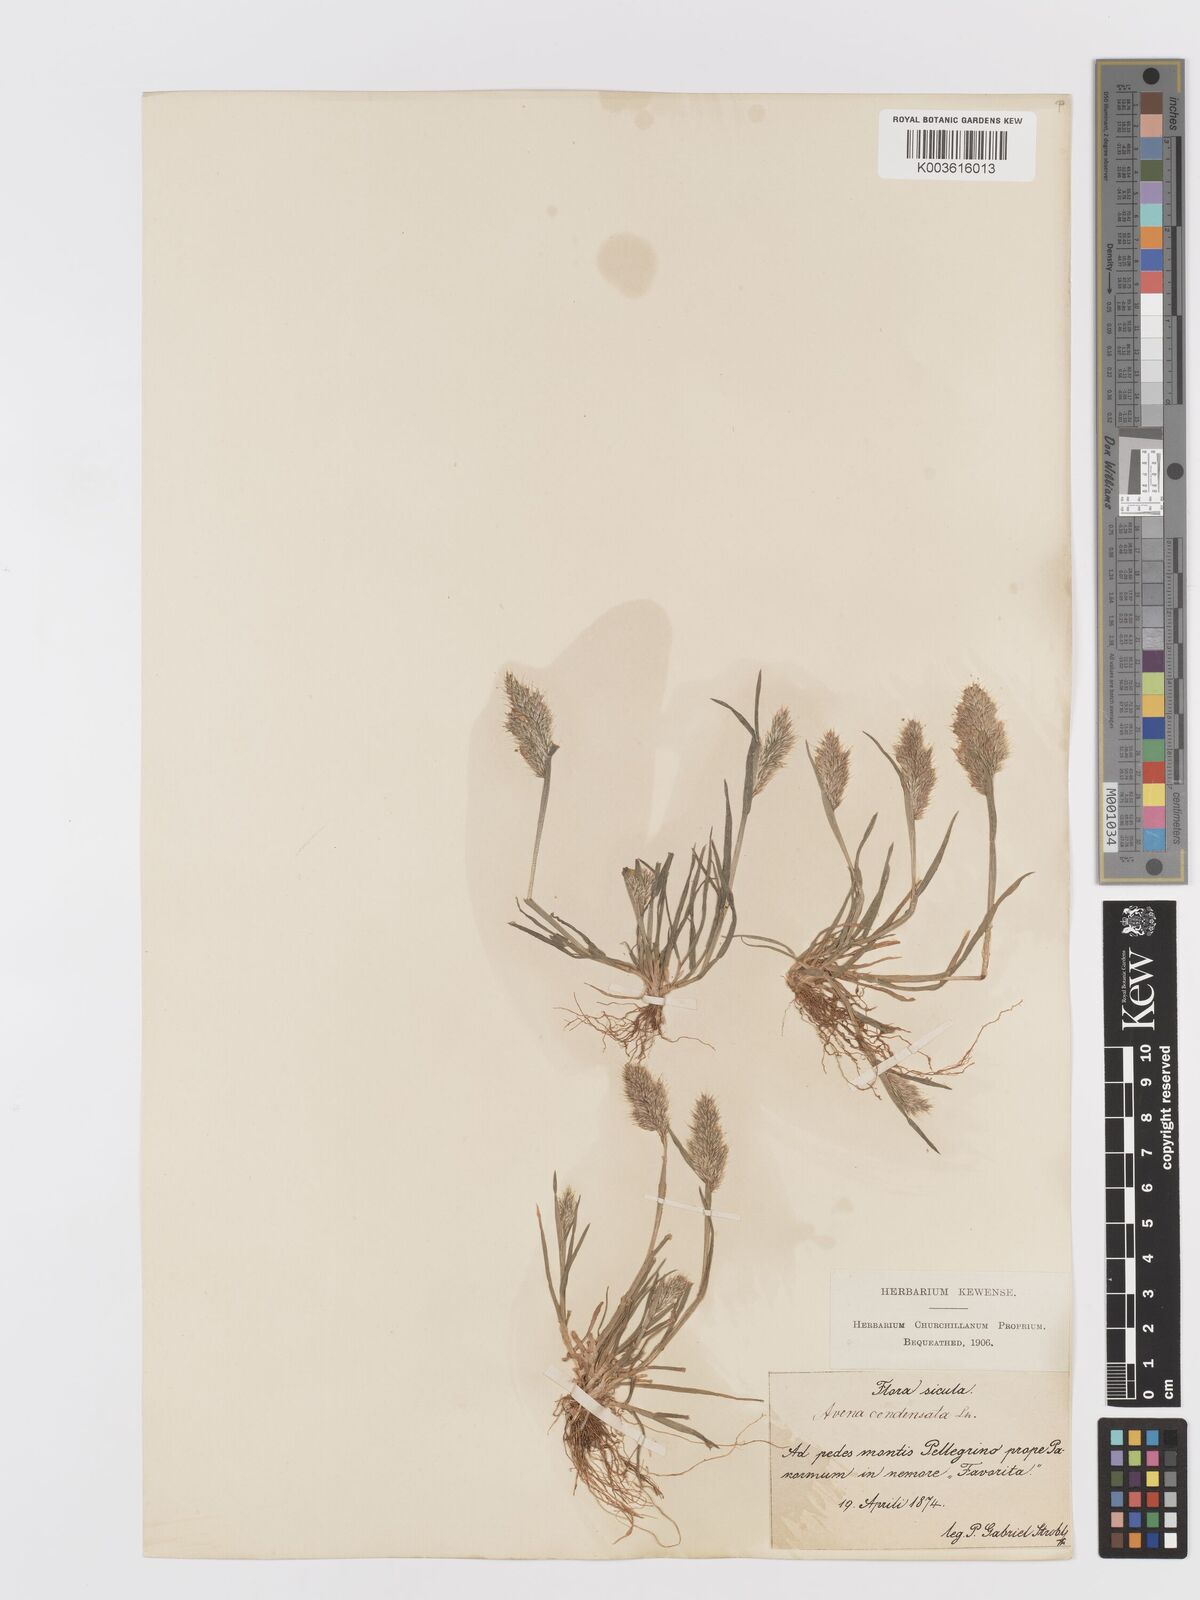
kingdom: Plantae
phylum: Tracheophyta
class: Liliopsida
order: Poales
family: Poaceae
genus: Trisetaria
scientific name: Trisetaria aurea
